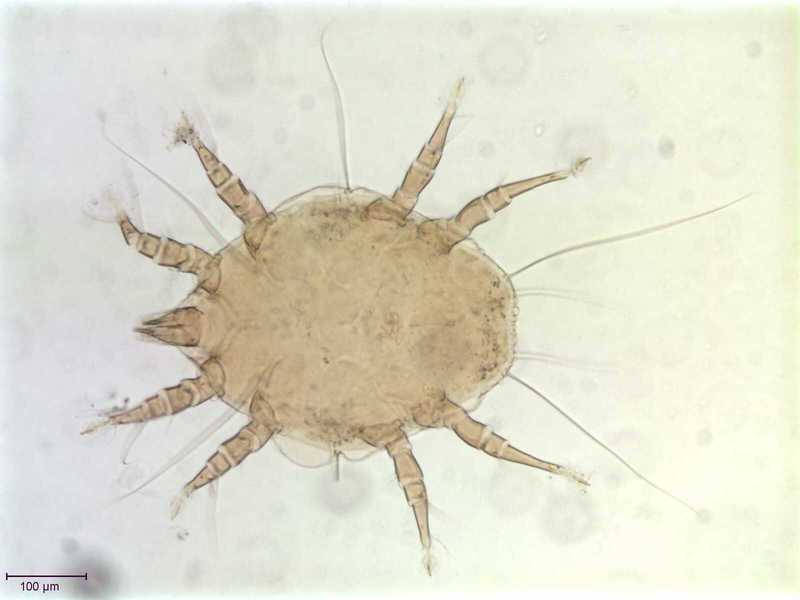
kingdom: Animalia
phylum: Arthropoda
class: Arachnida
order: Sarcoptiformes
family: Canestriniidae
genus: Canestrinia
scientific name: Canestrinia
